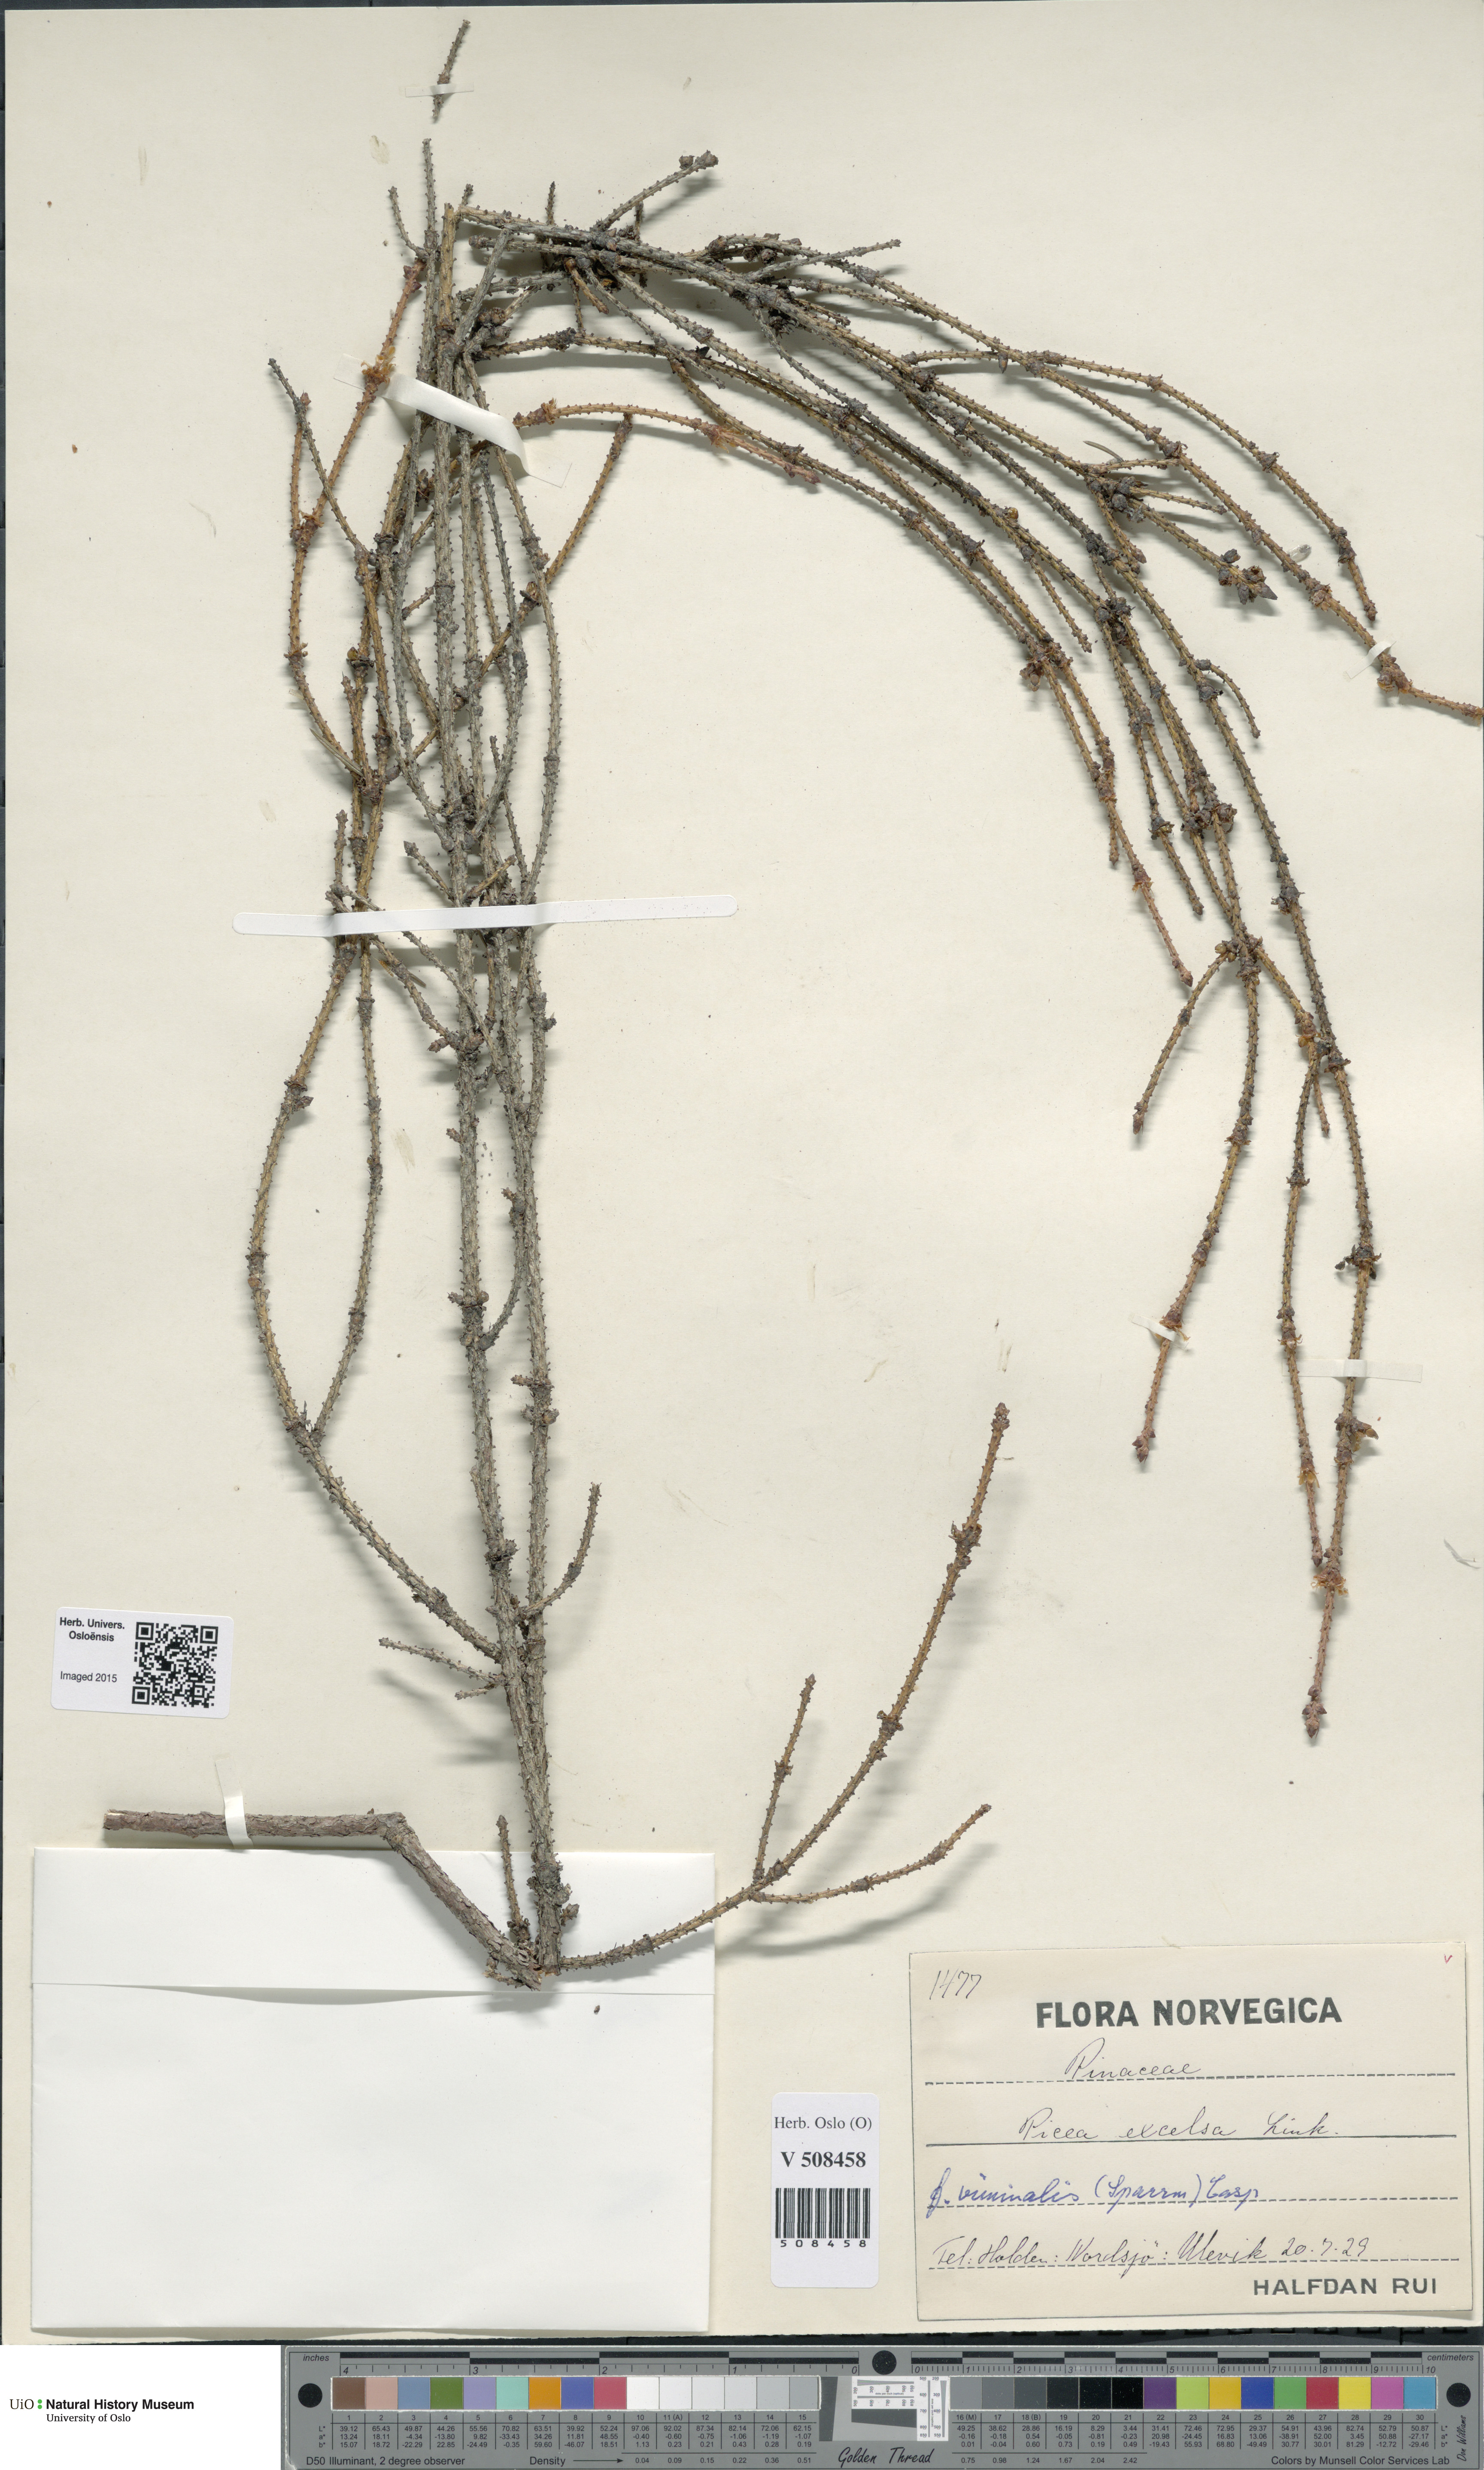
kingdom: Plantae
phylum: Tracheophyta
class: Pinopsida
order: Pinales
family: Pinaceae
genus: Picea
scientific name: Picea abies
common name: Norway spruce
